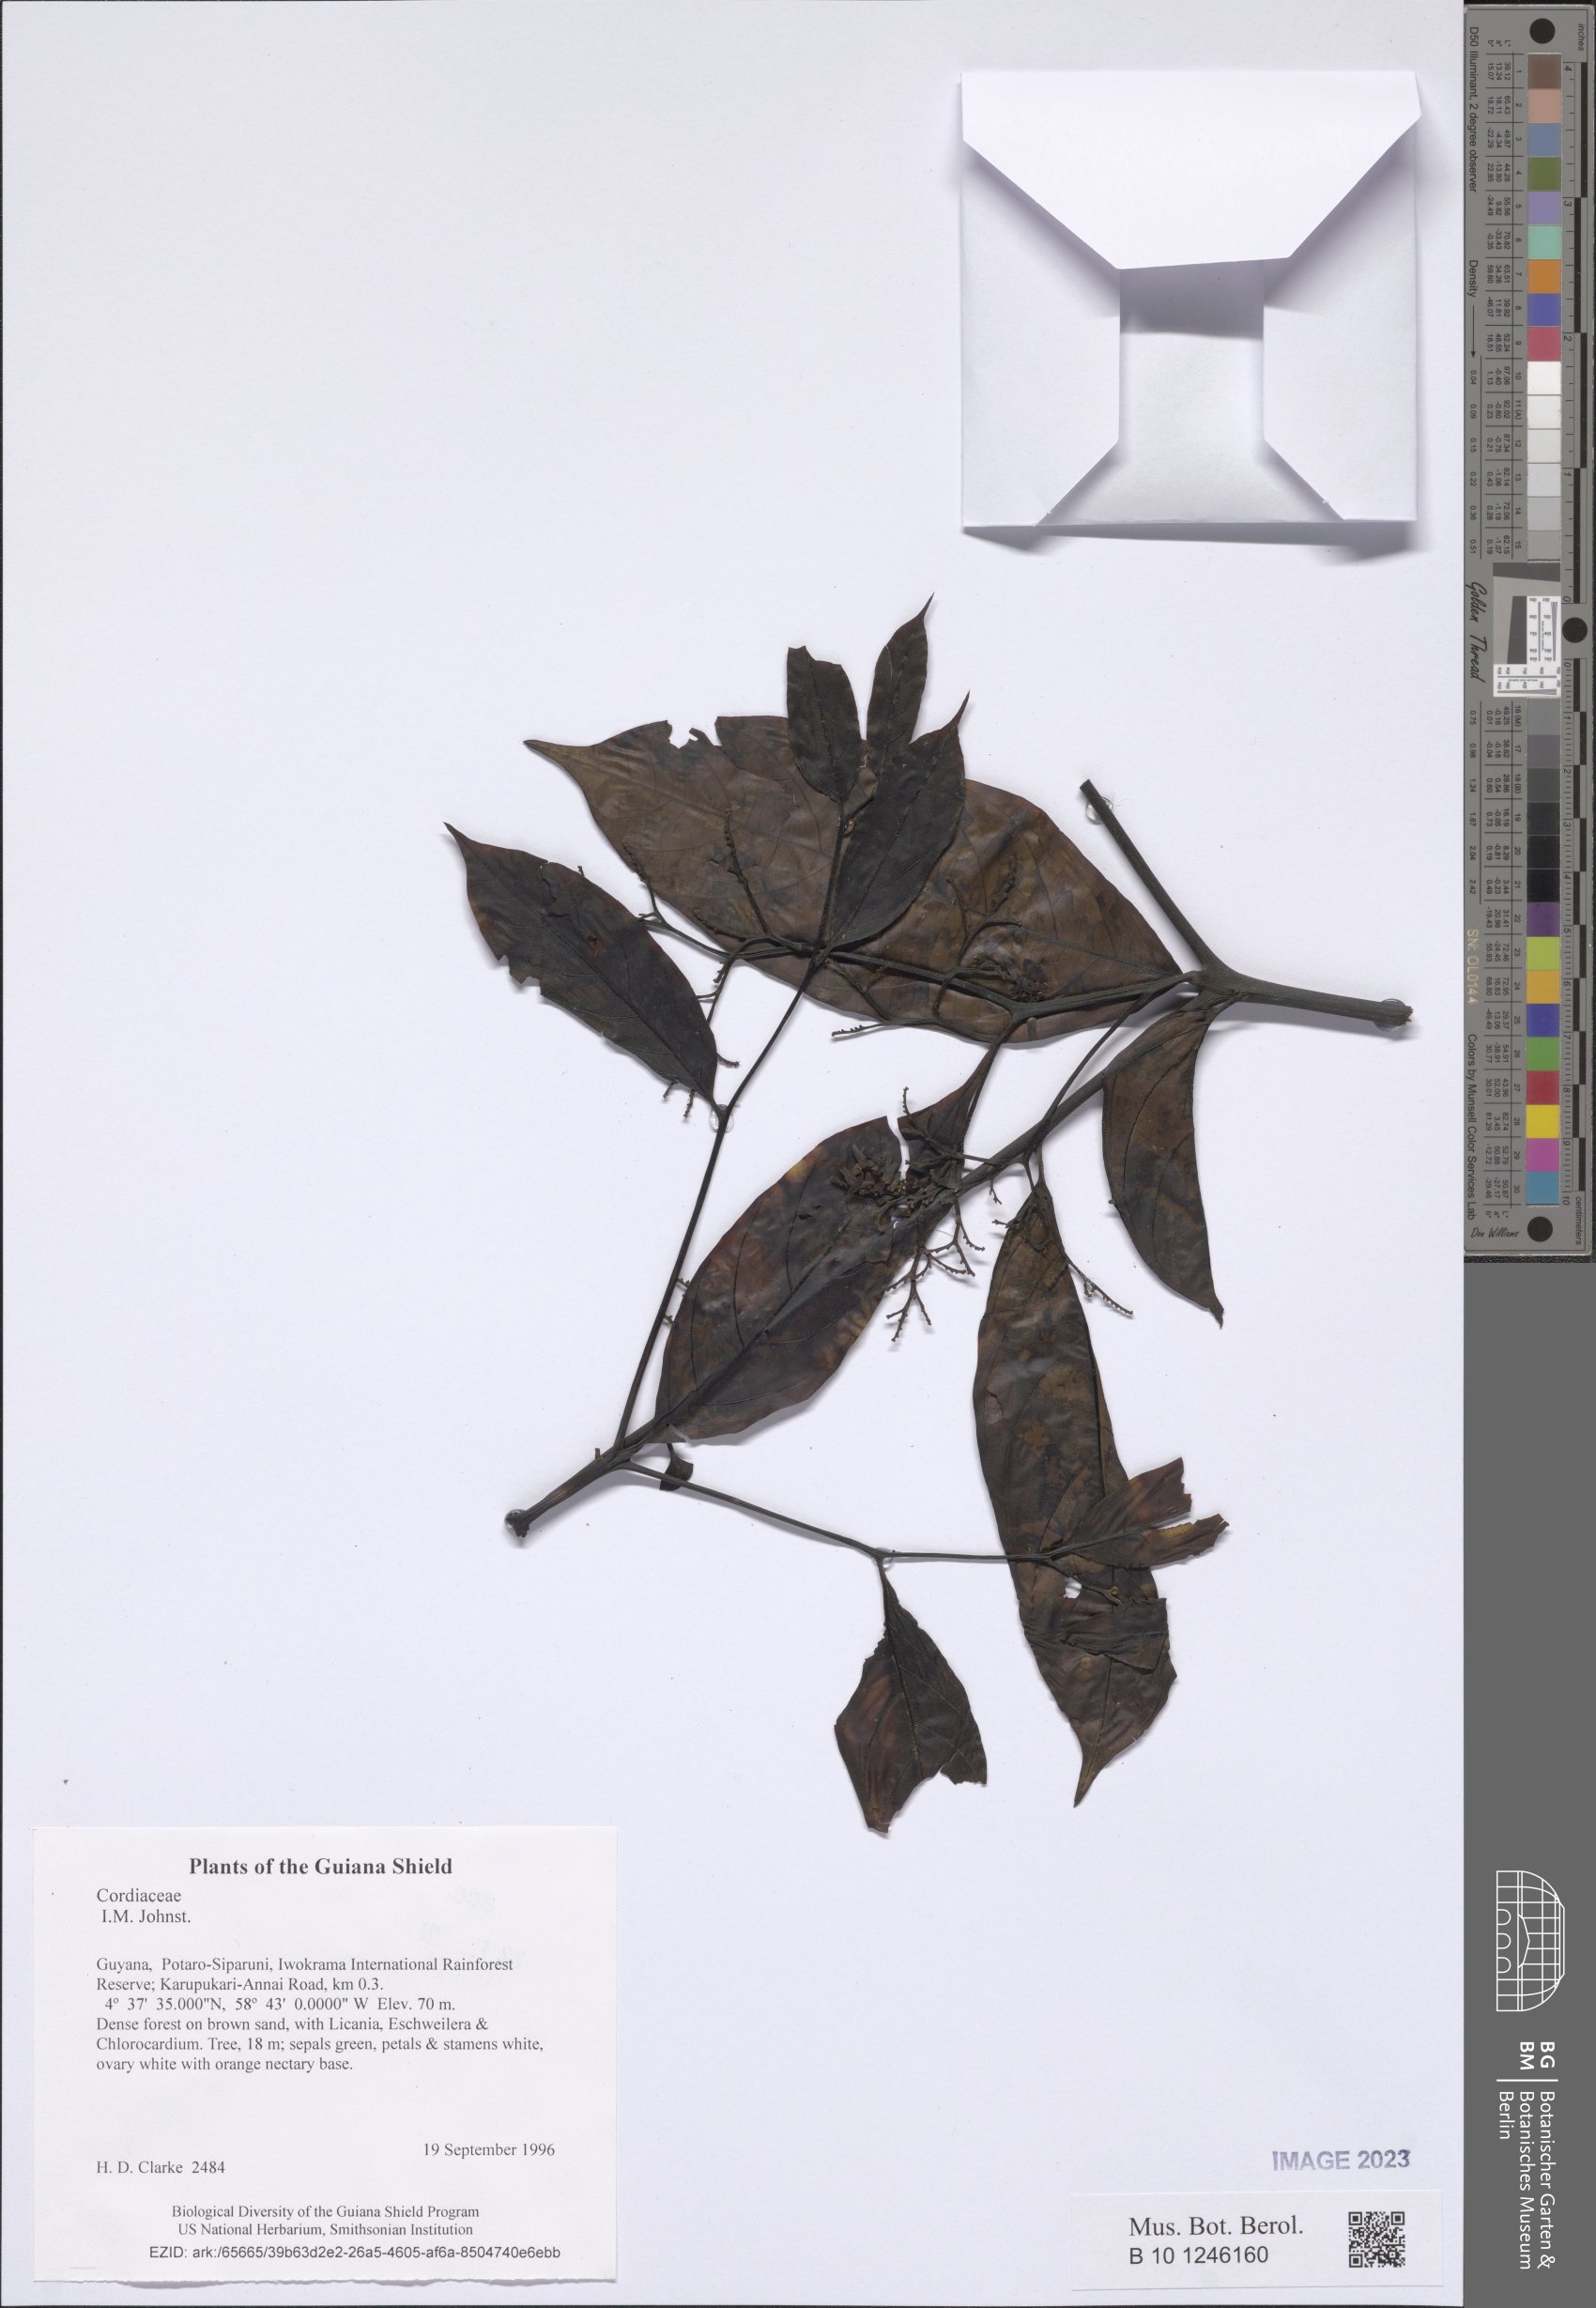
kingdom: Plantae
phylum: Tracheophyta
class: Magnoliopsida
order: Boraginales
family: Boraginaceae
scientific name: Boraginaceae
